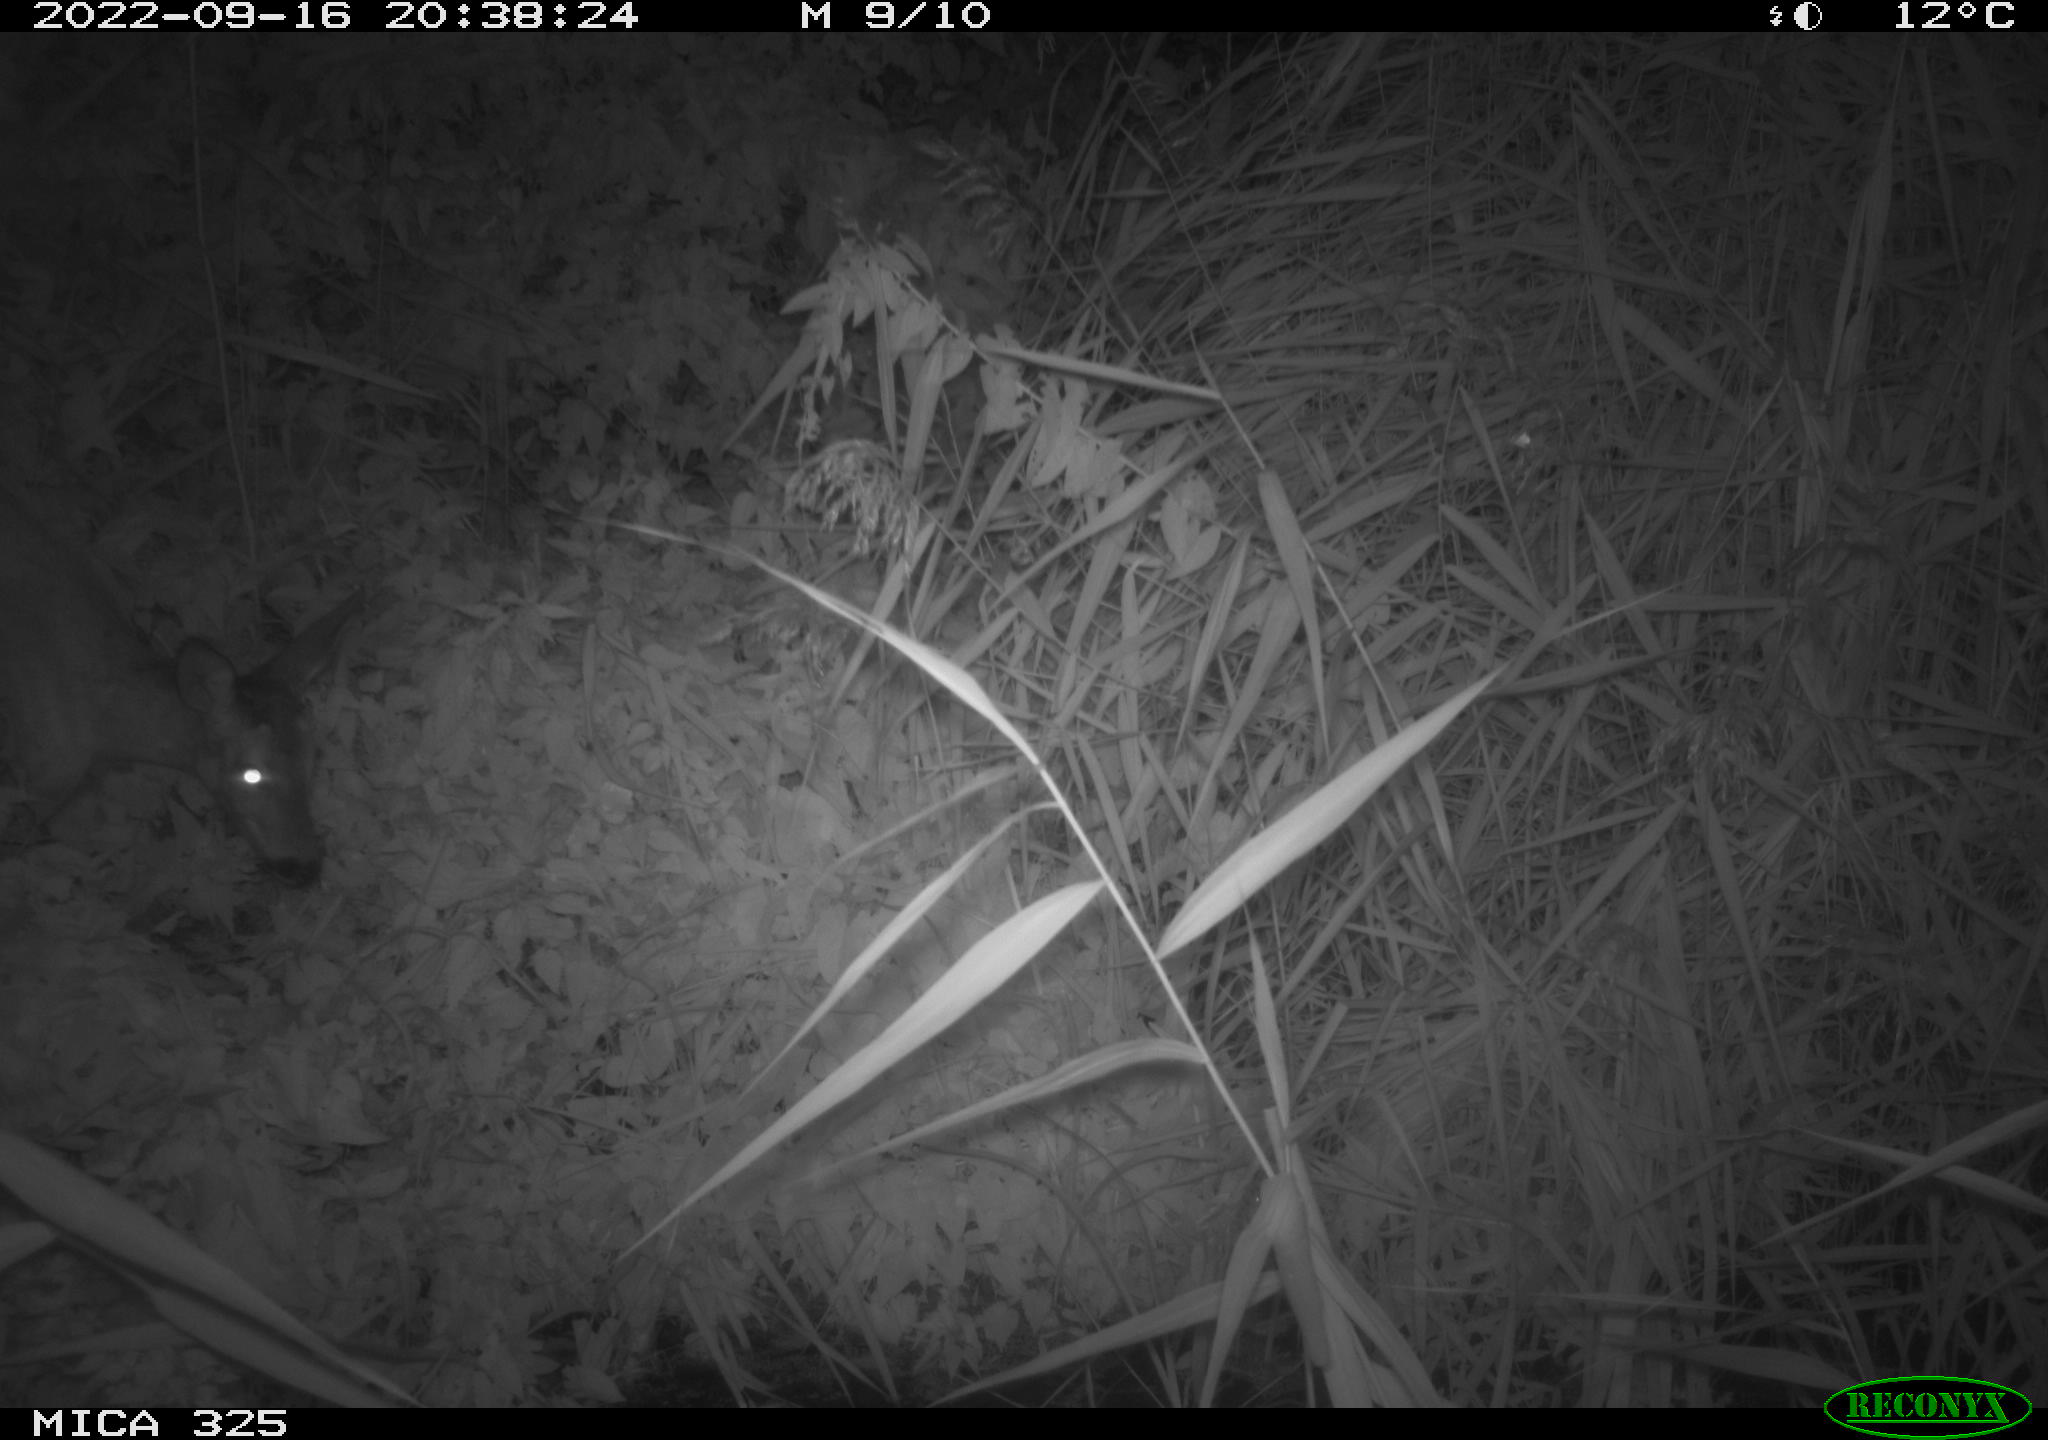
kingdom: Animalia
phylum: Chordata
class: Mammalia
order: Artiodactyla
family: Cervidae
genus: Capreolus
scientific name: Capreolus capreolus
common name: Western roe deer
